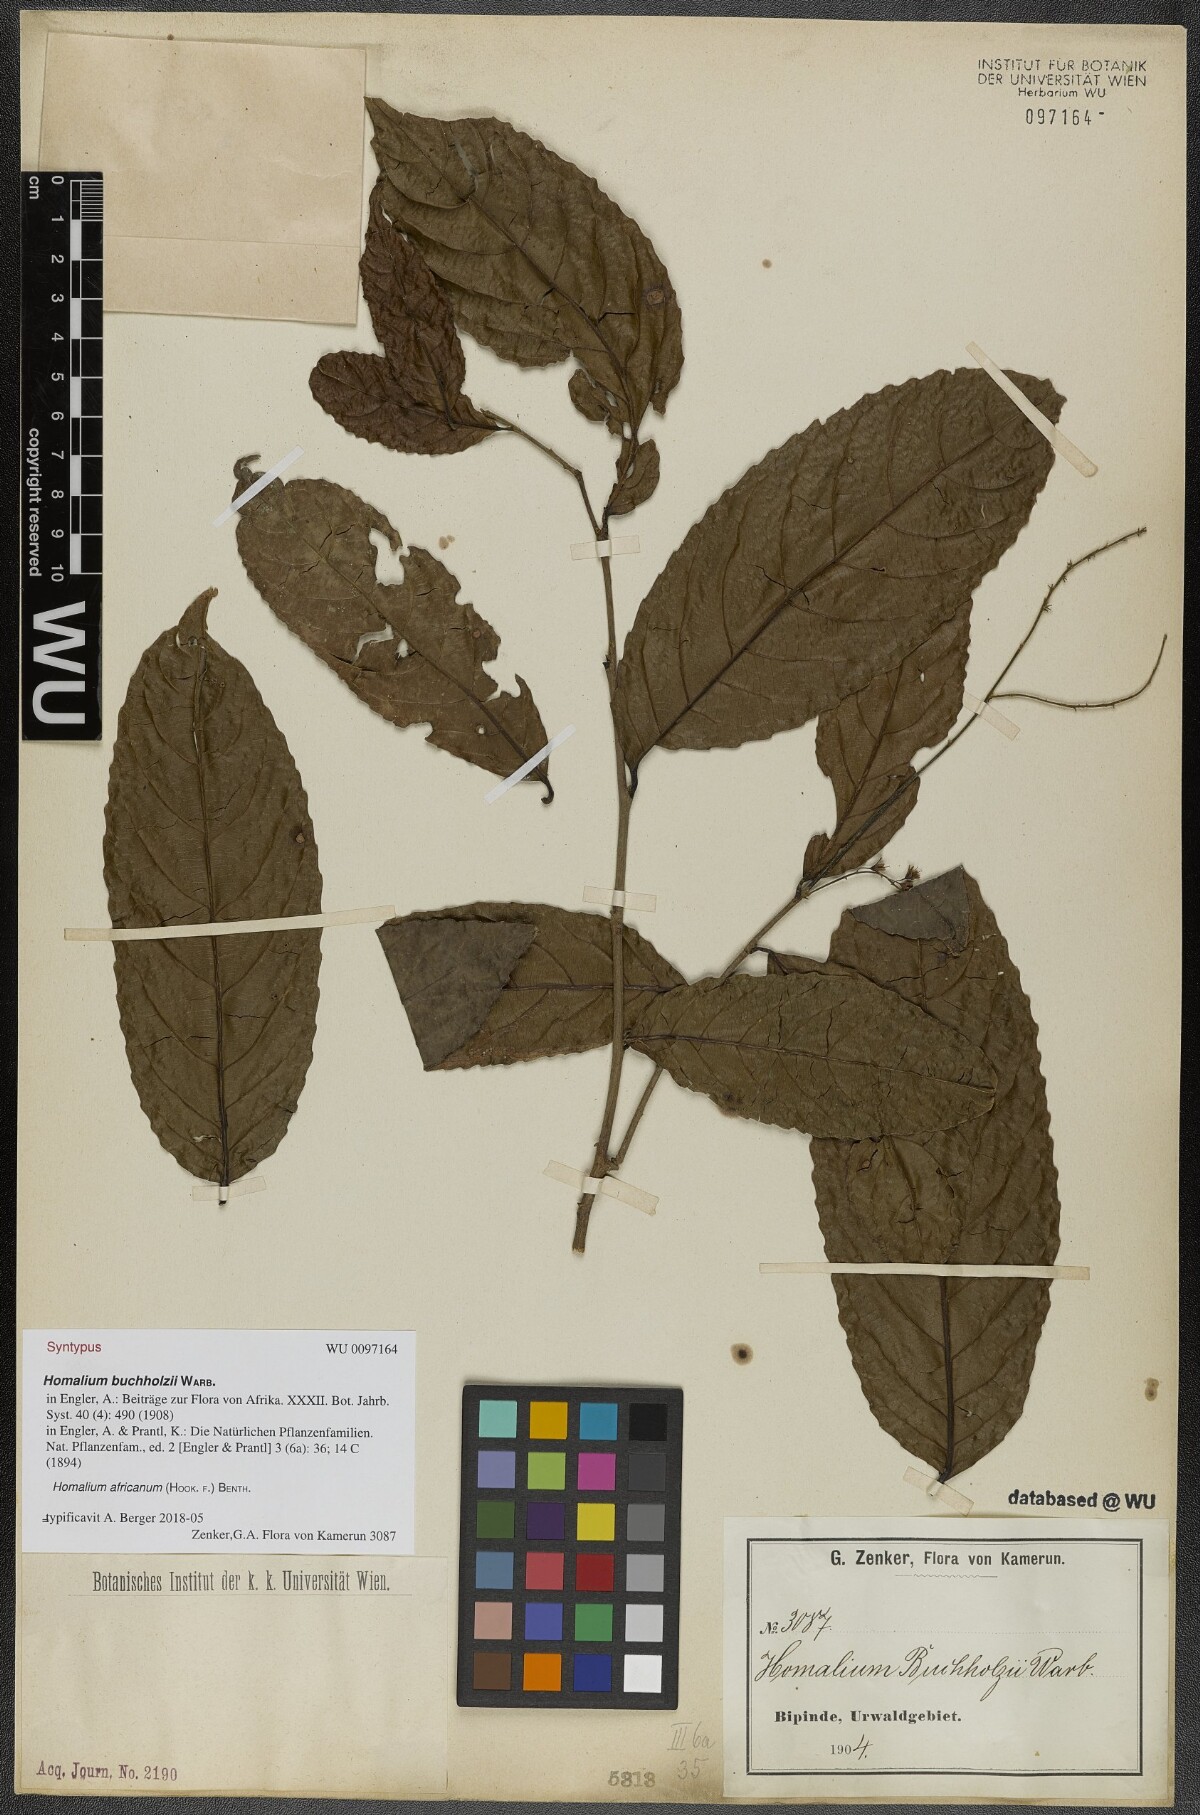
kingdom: Plantae
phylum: Tracheophyta
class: Magnoliopsida
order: Malpighiales
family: Salicaceae
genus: Homalium
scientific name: Homalium africanum
